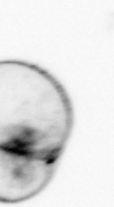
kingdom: Chromista
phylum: Myzozoa
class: Dinophyceae
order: Noctilucales
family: Noctilucaceae
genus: Noctiluca
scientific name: Noctiluca scintillans
